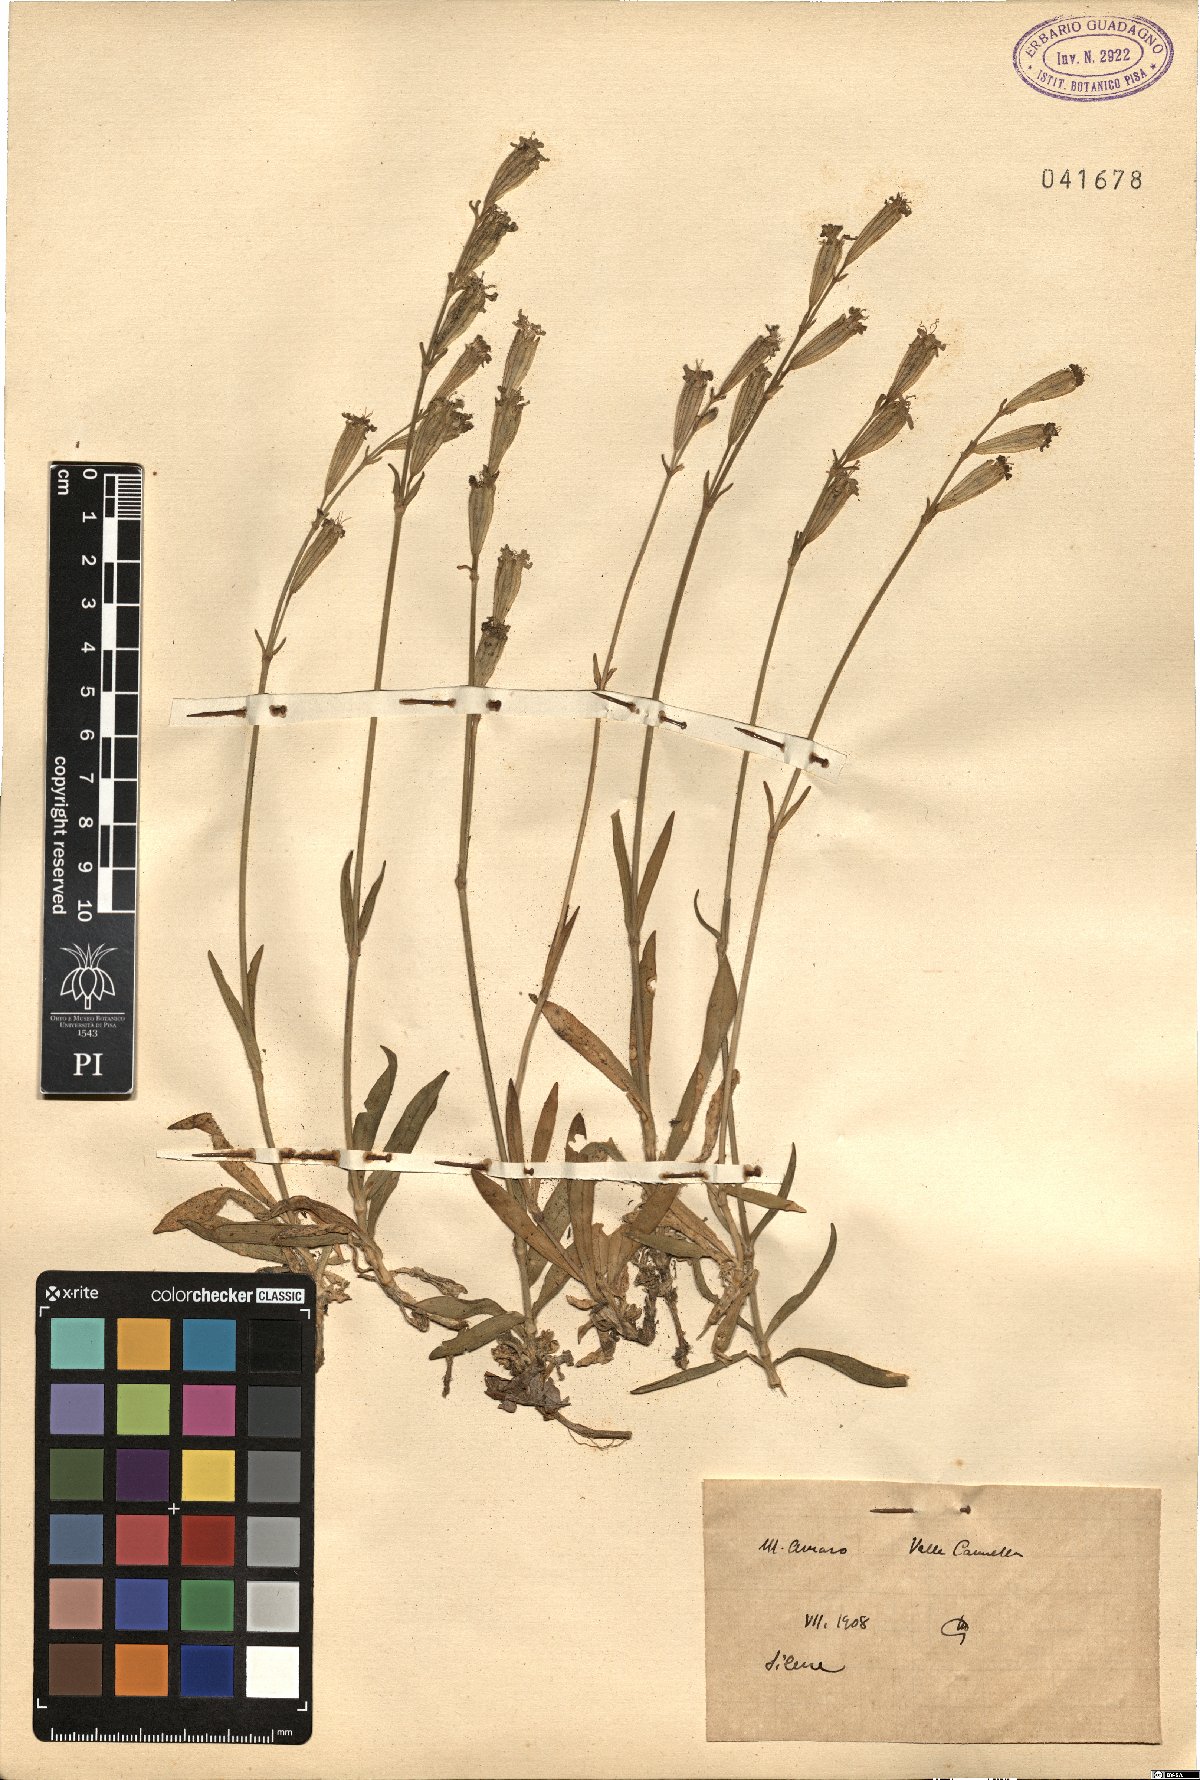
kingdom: Plantae
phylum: Tracheophyta
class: Magnoliopsida
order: Caryophyllales
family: Caryophyllaceae
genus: Silene
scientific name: Silene
